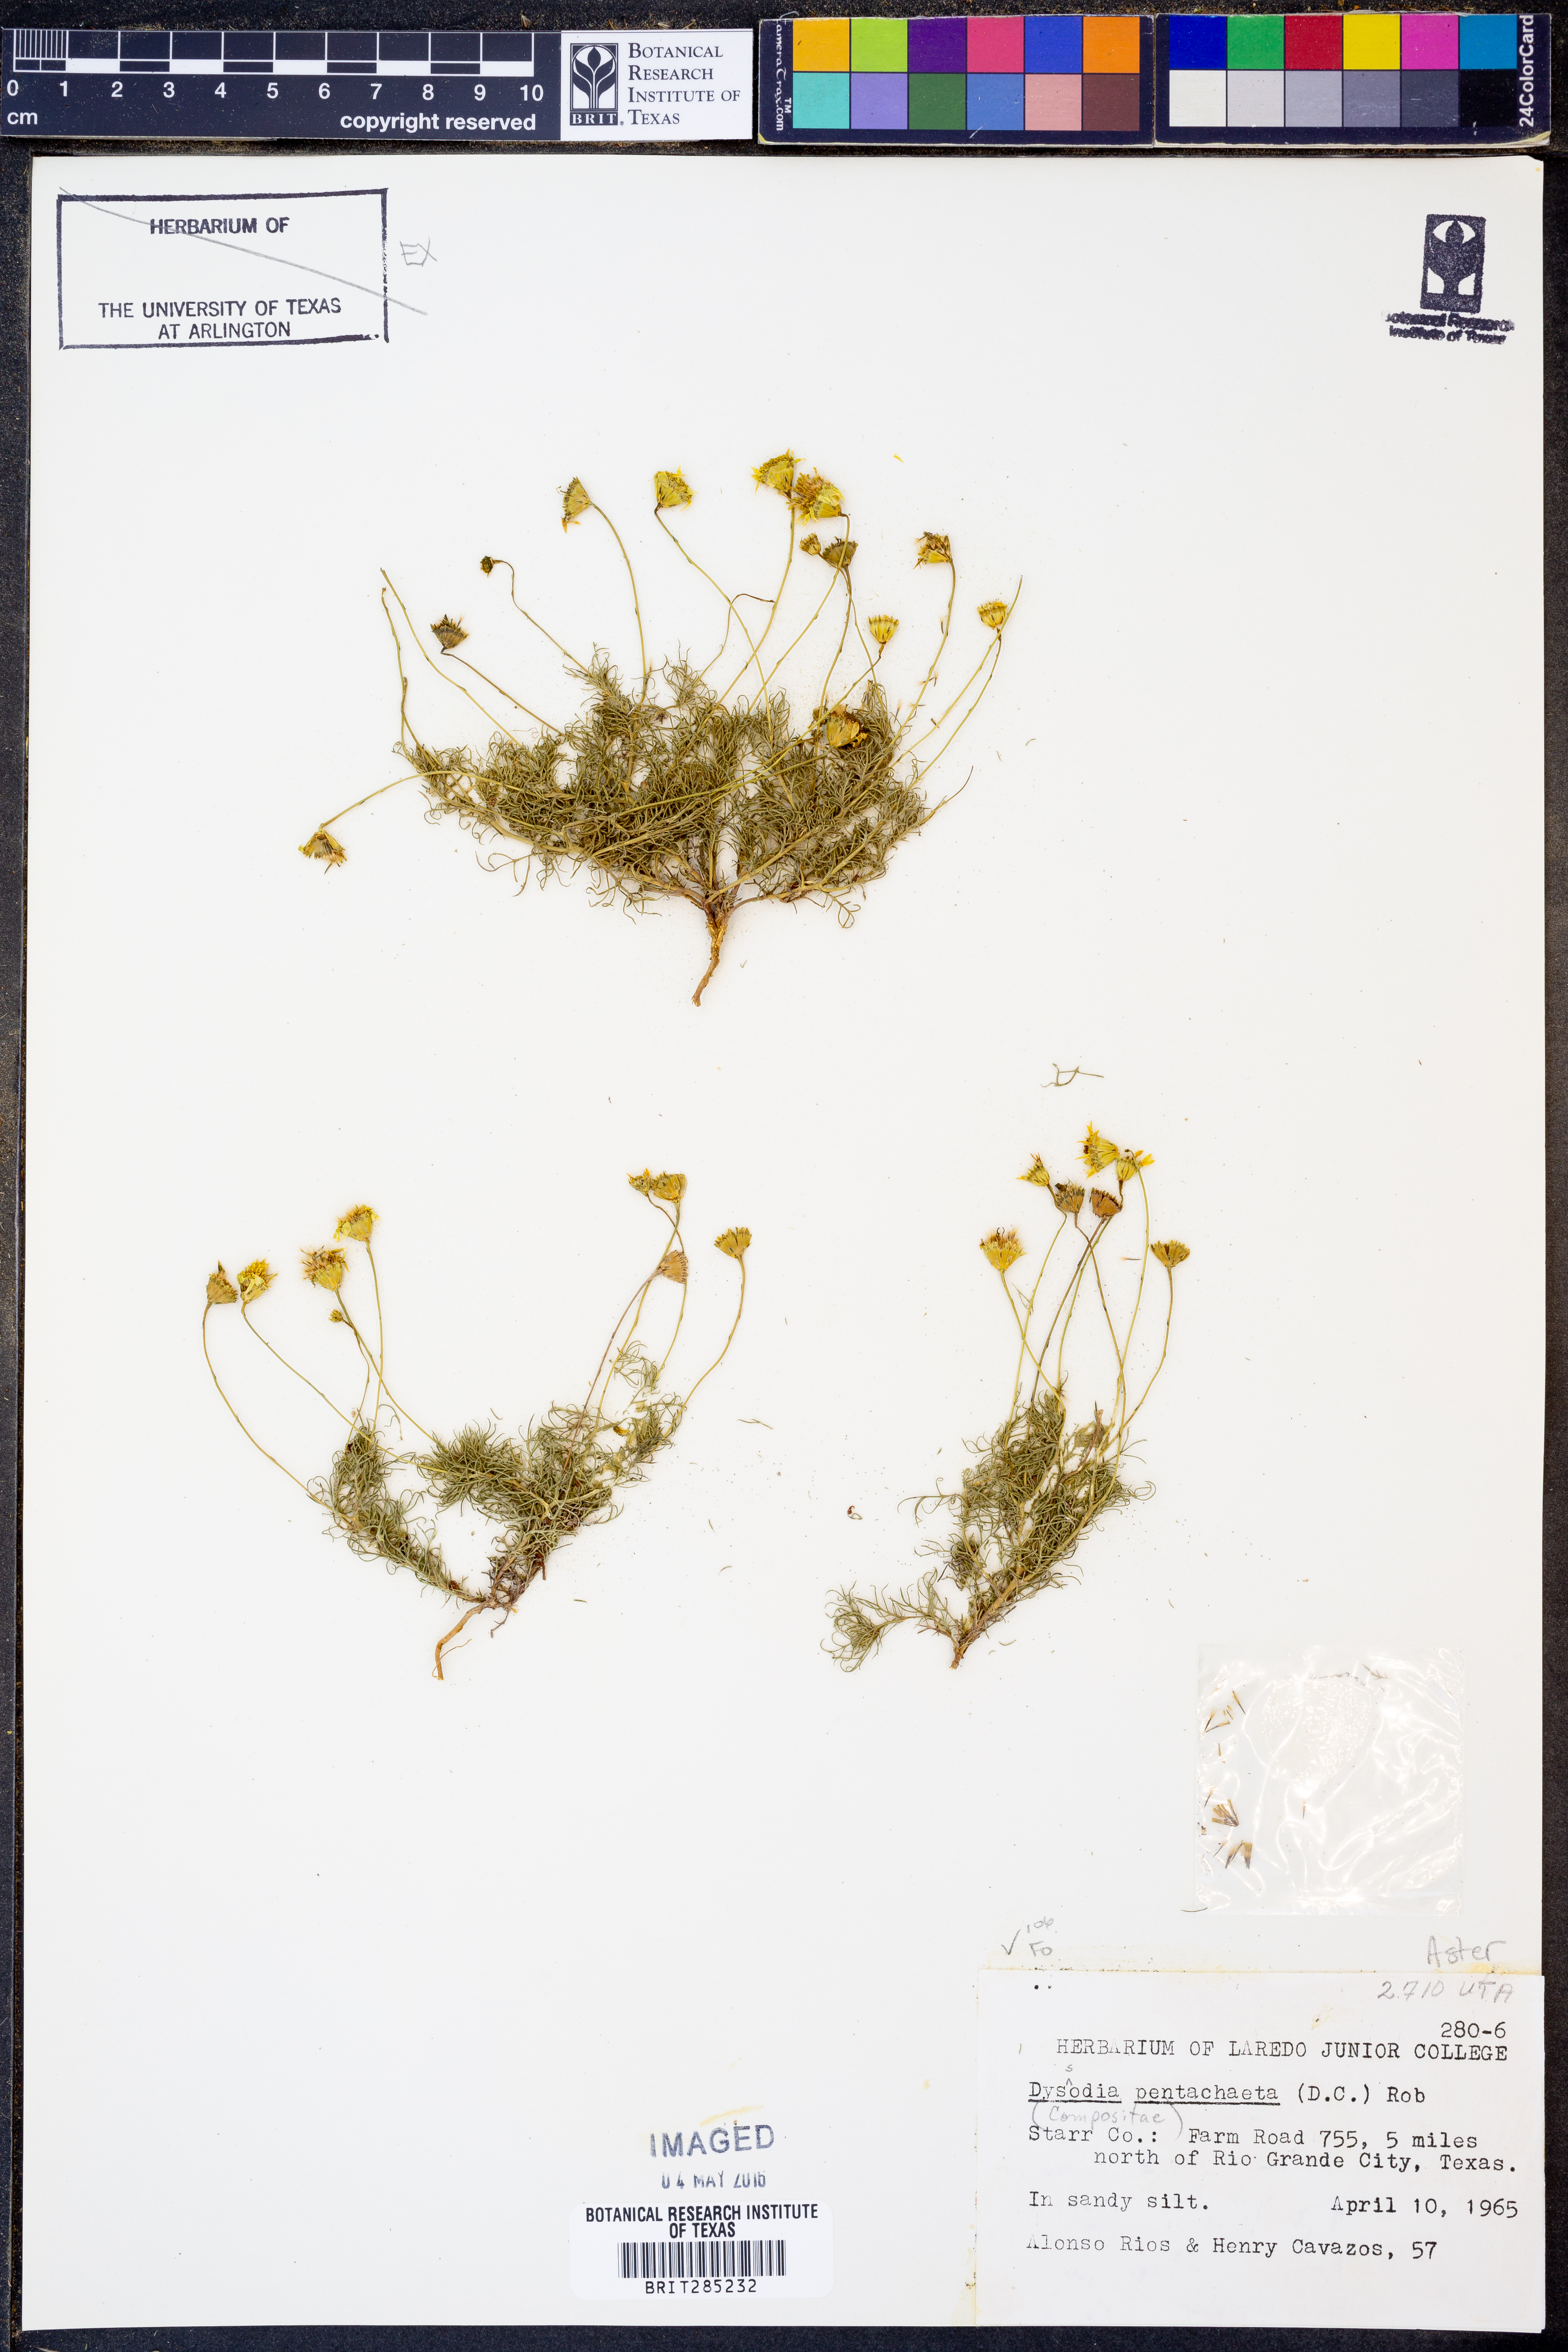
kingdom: Plantae
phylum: Tracheophyta
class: Magnoliopsida
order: Asterales
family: Asteraceae
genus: Thymophylla
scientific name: Thymophylla pentachaeta
